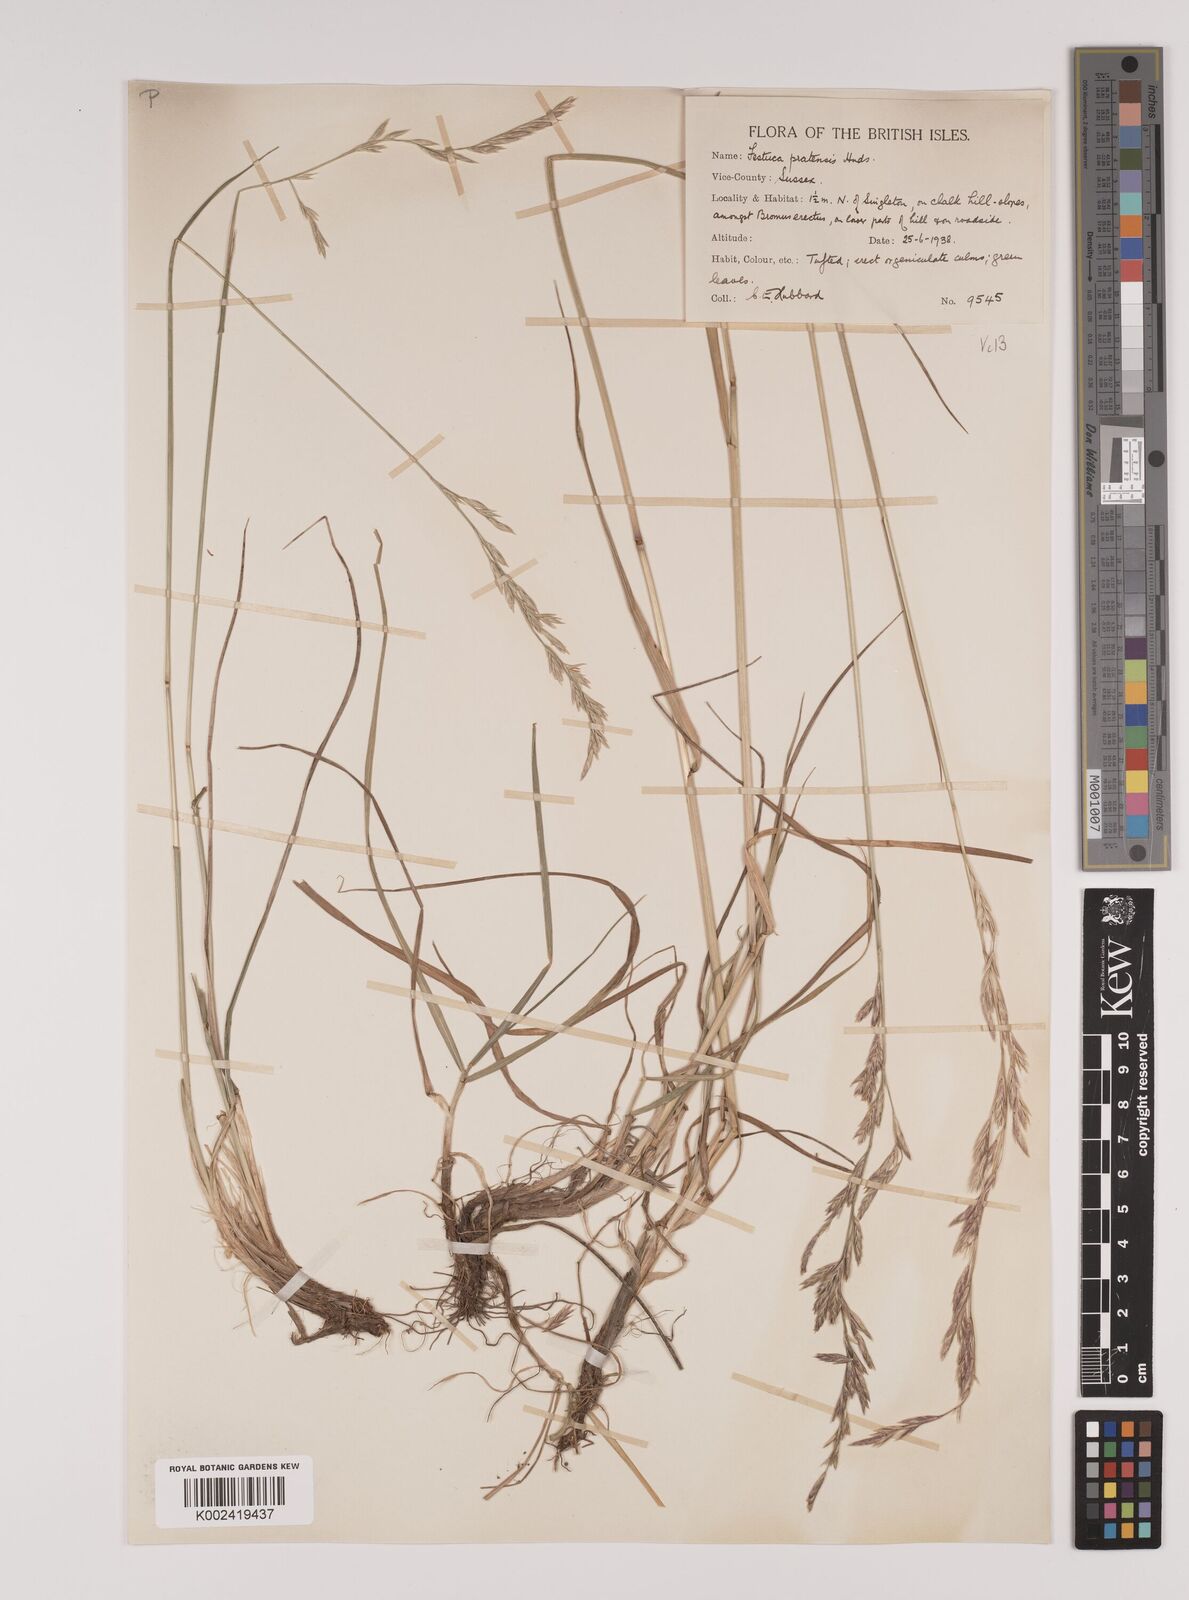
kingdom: Plantae
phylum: Tracheophyta
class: Liliopsida
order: Poales
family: Poaceae
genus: Lolium
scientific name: Lolium pratense
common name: Dover grass
